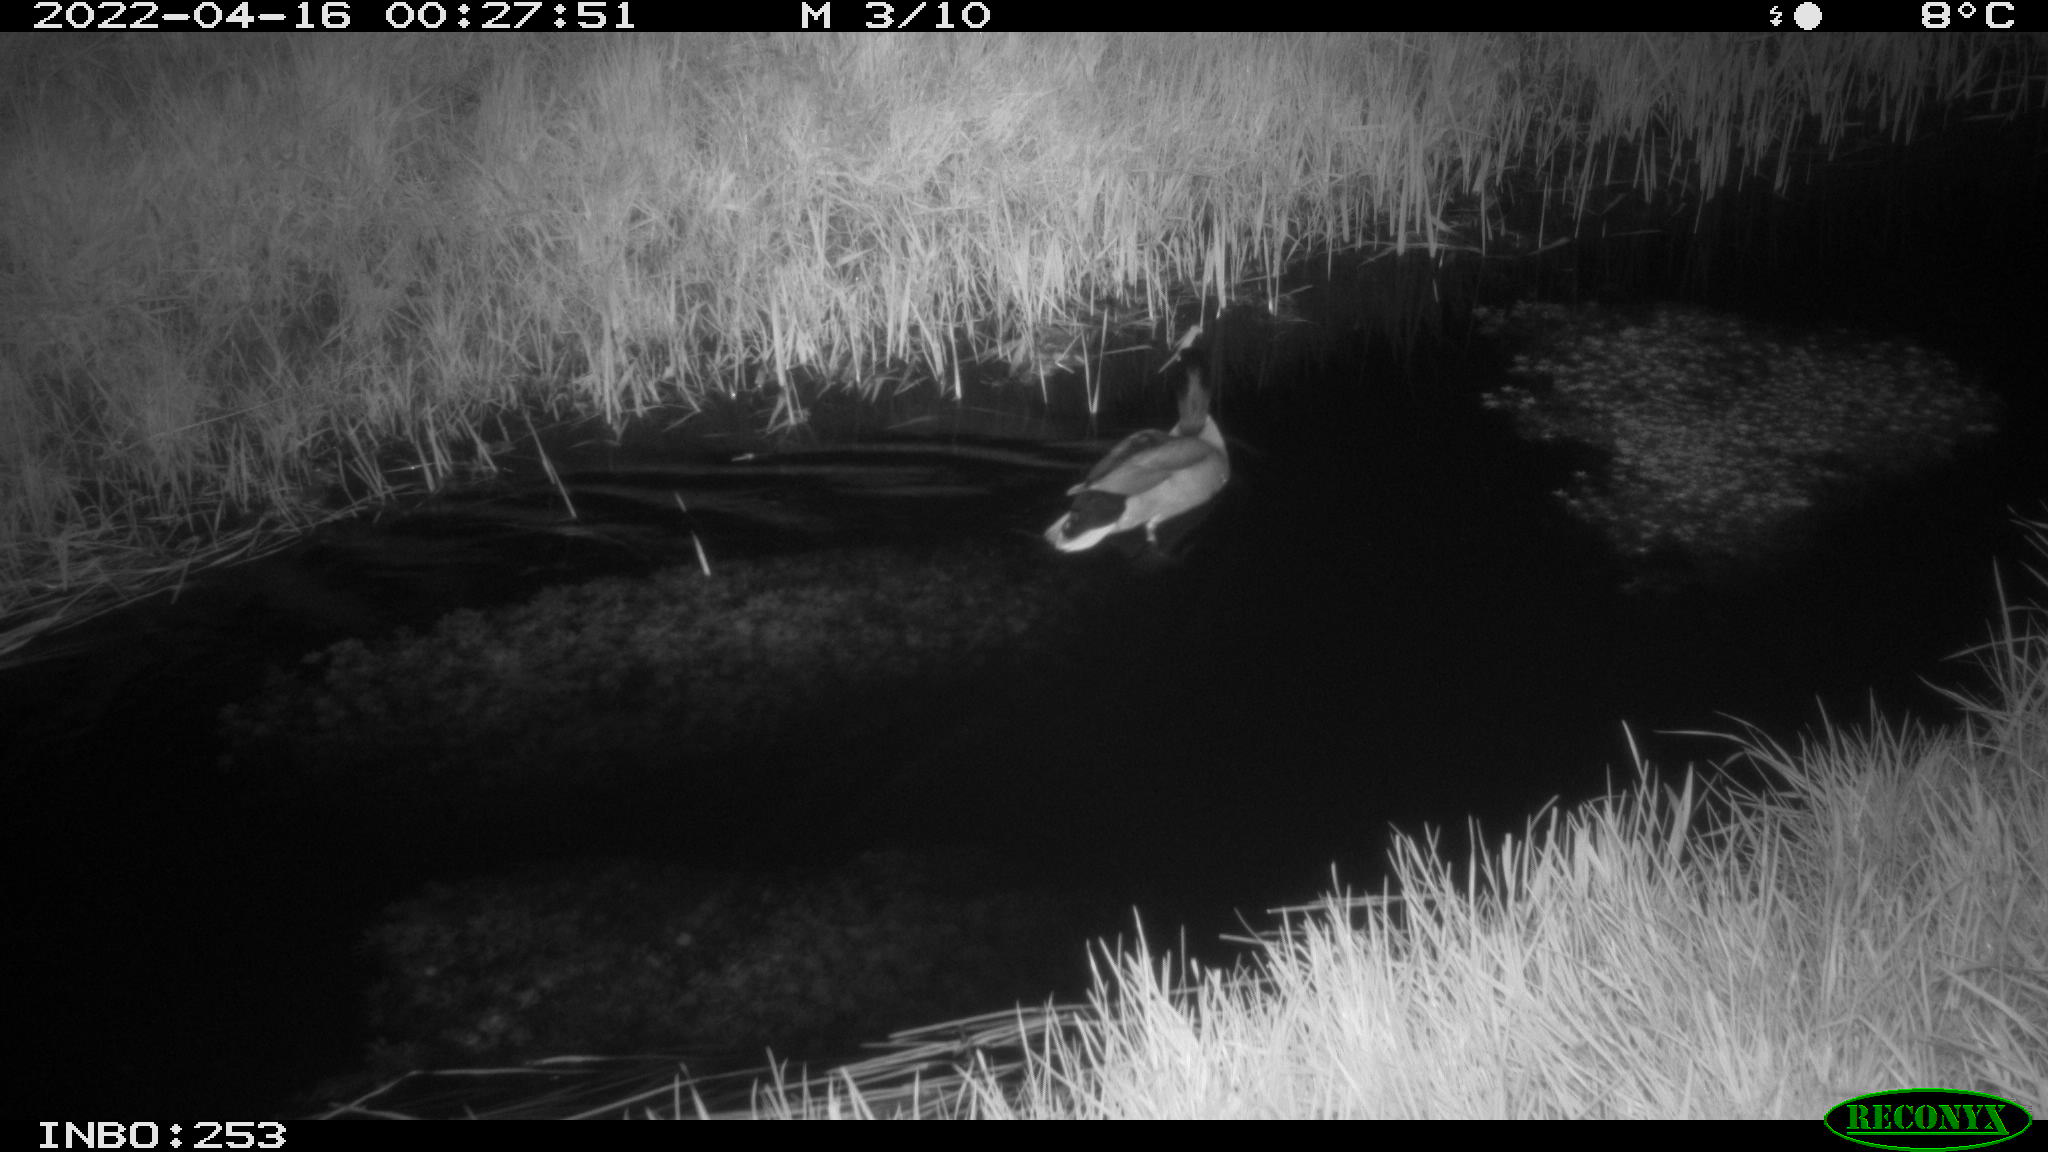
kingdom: Animalia
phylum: Chordata
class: Aves
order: Anseriformes
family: Anatidae
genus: Anas
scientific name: Anas platyrhynchos
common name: Mallard
